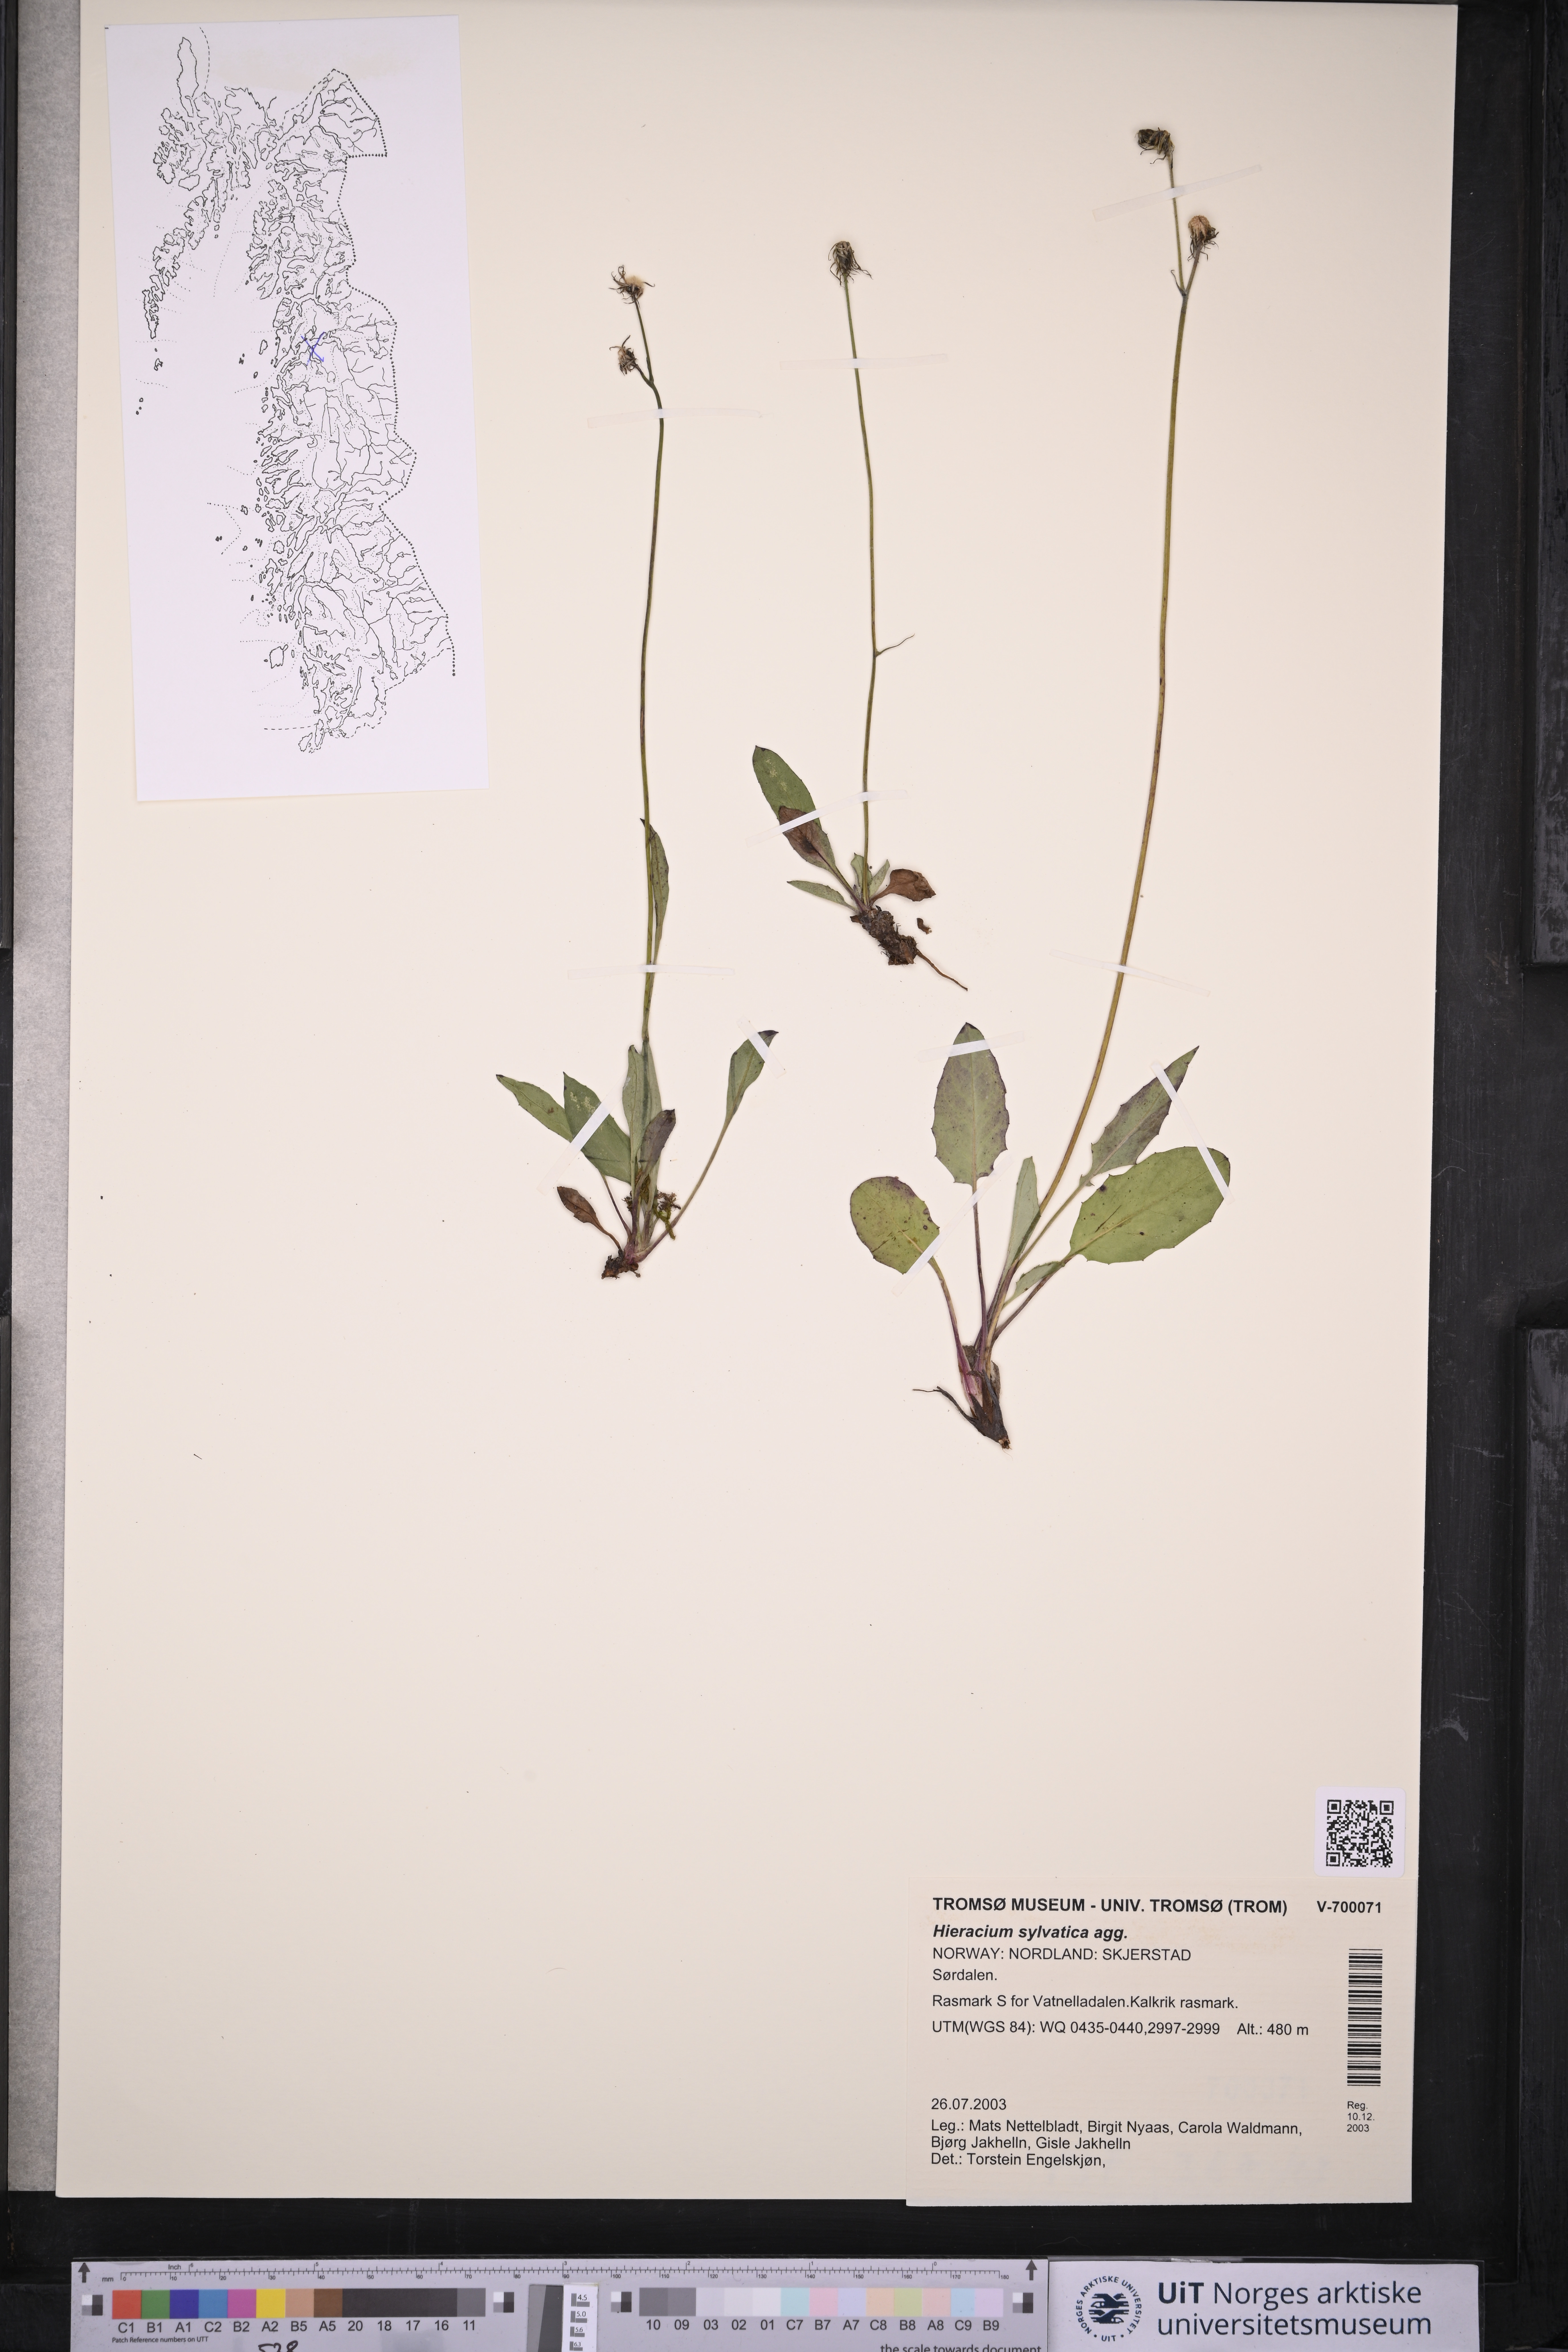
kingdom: Plantae
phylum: Tracheophyta
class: Magnoliopsida
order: Asterales
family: Asteraceae
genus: Hieracium
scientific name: Hieracium
